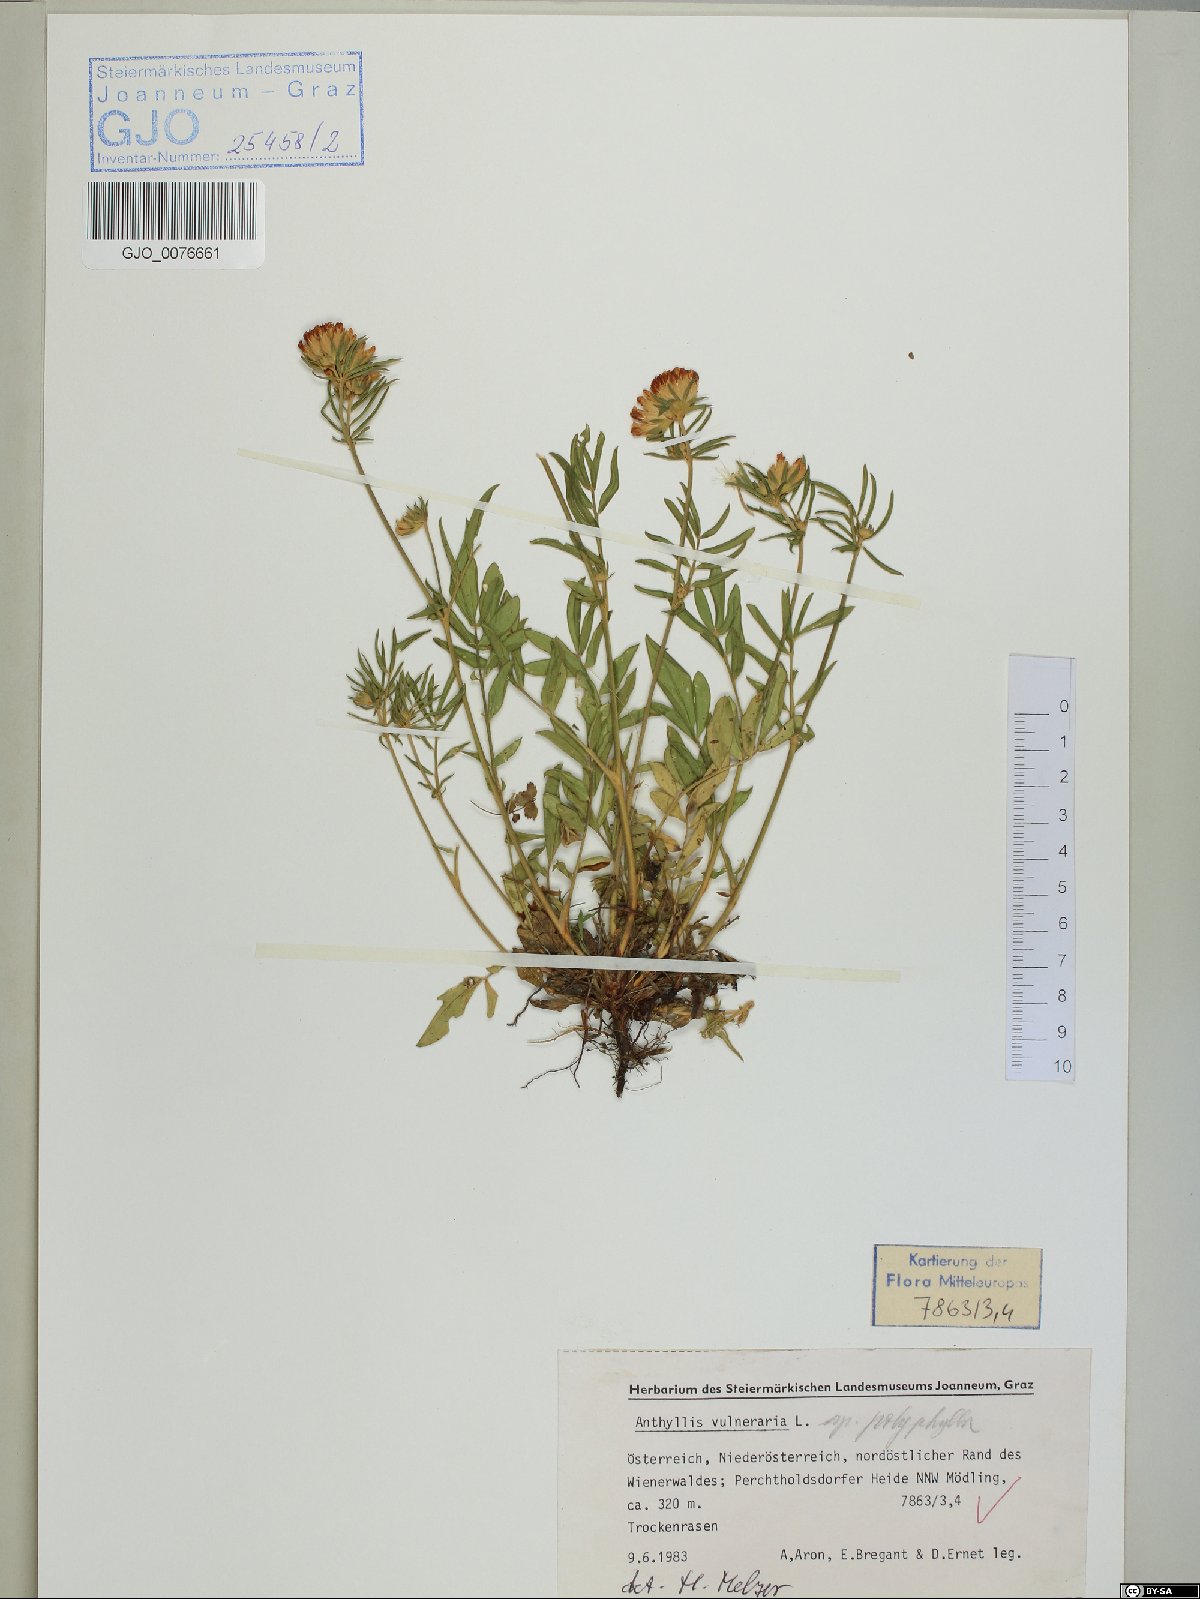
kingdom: Plantae
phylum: Tracheophyta
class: Magnoliopsida
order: Fabales
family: Fabaceae
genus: Anthyllis
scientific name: Anthyllis vulneraria
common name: Kidney vetch
